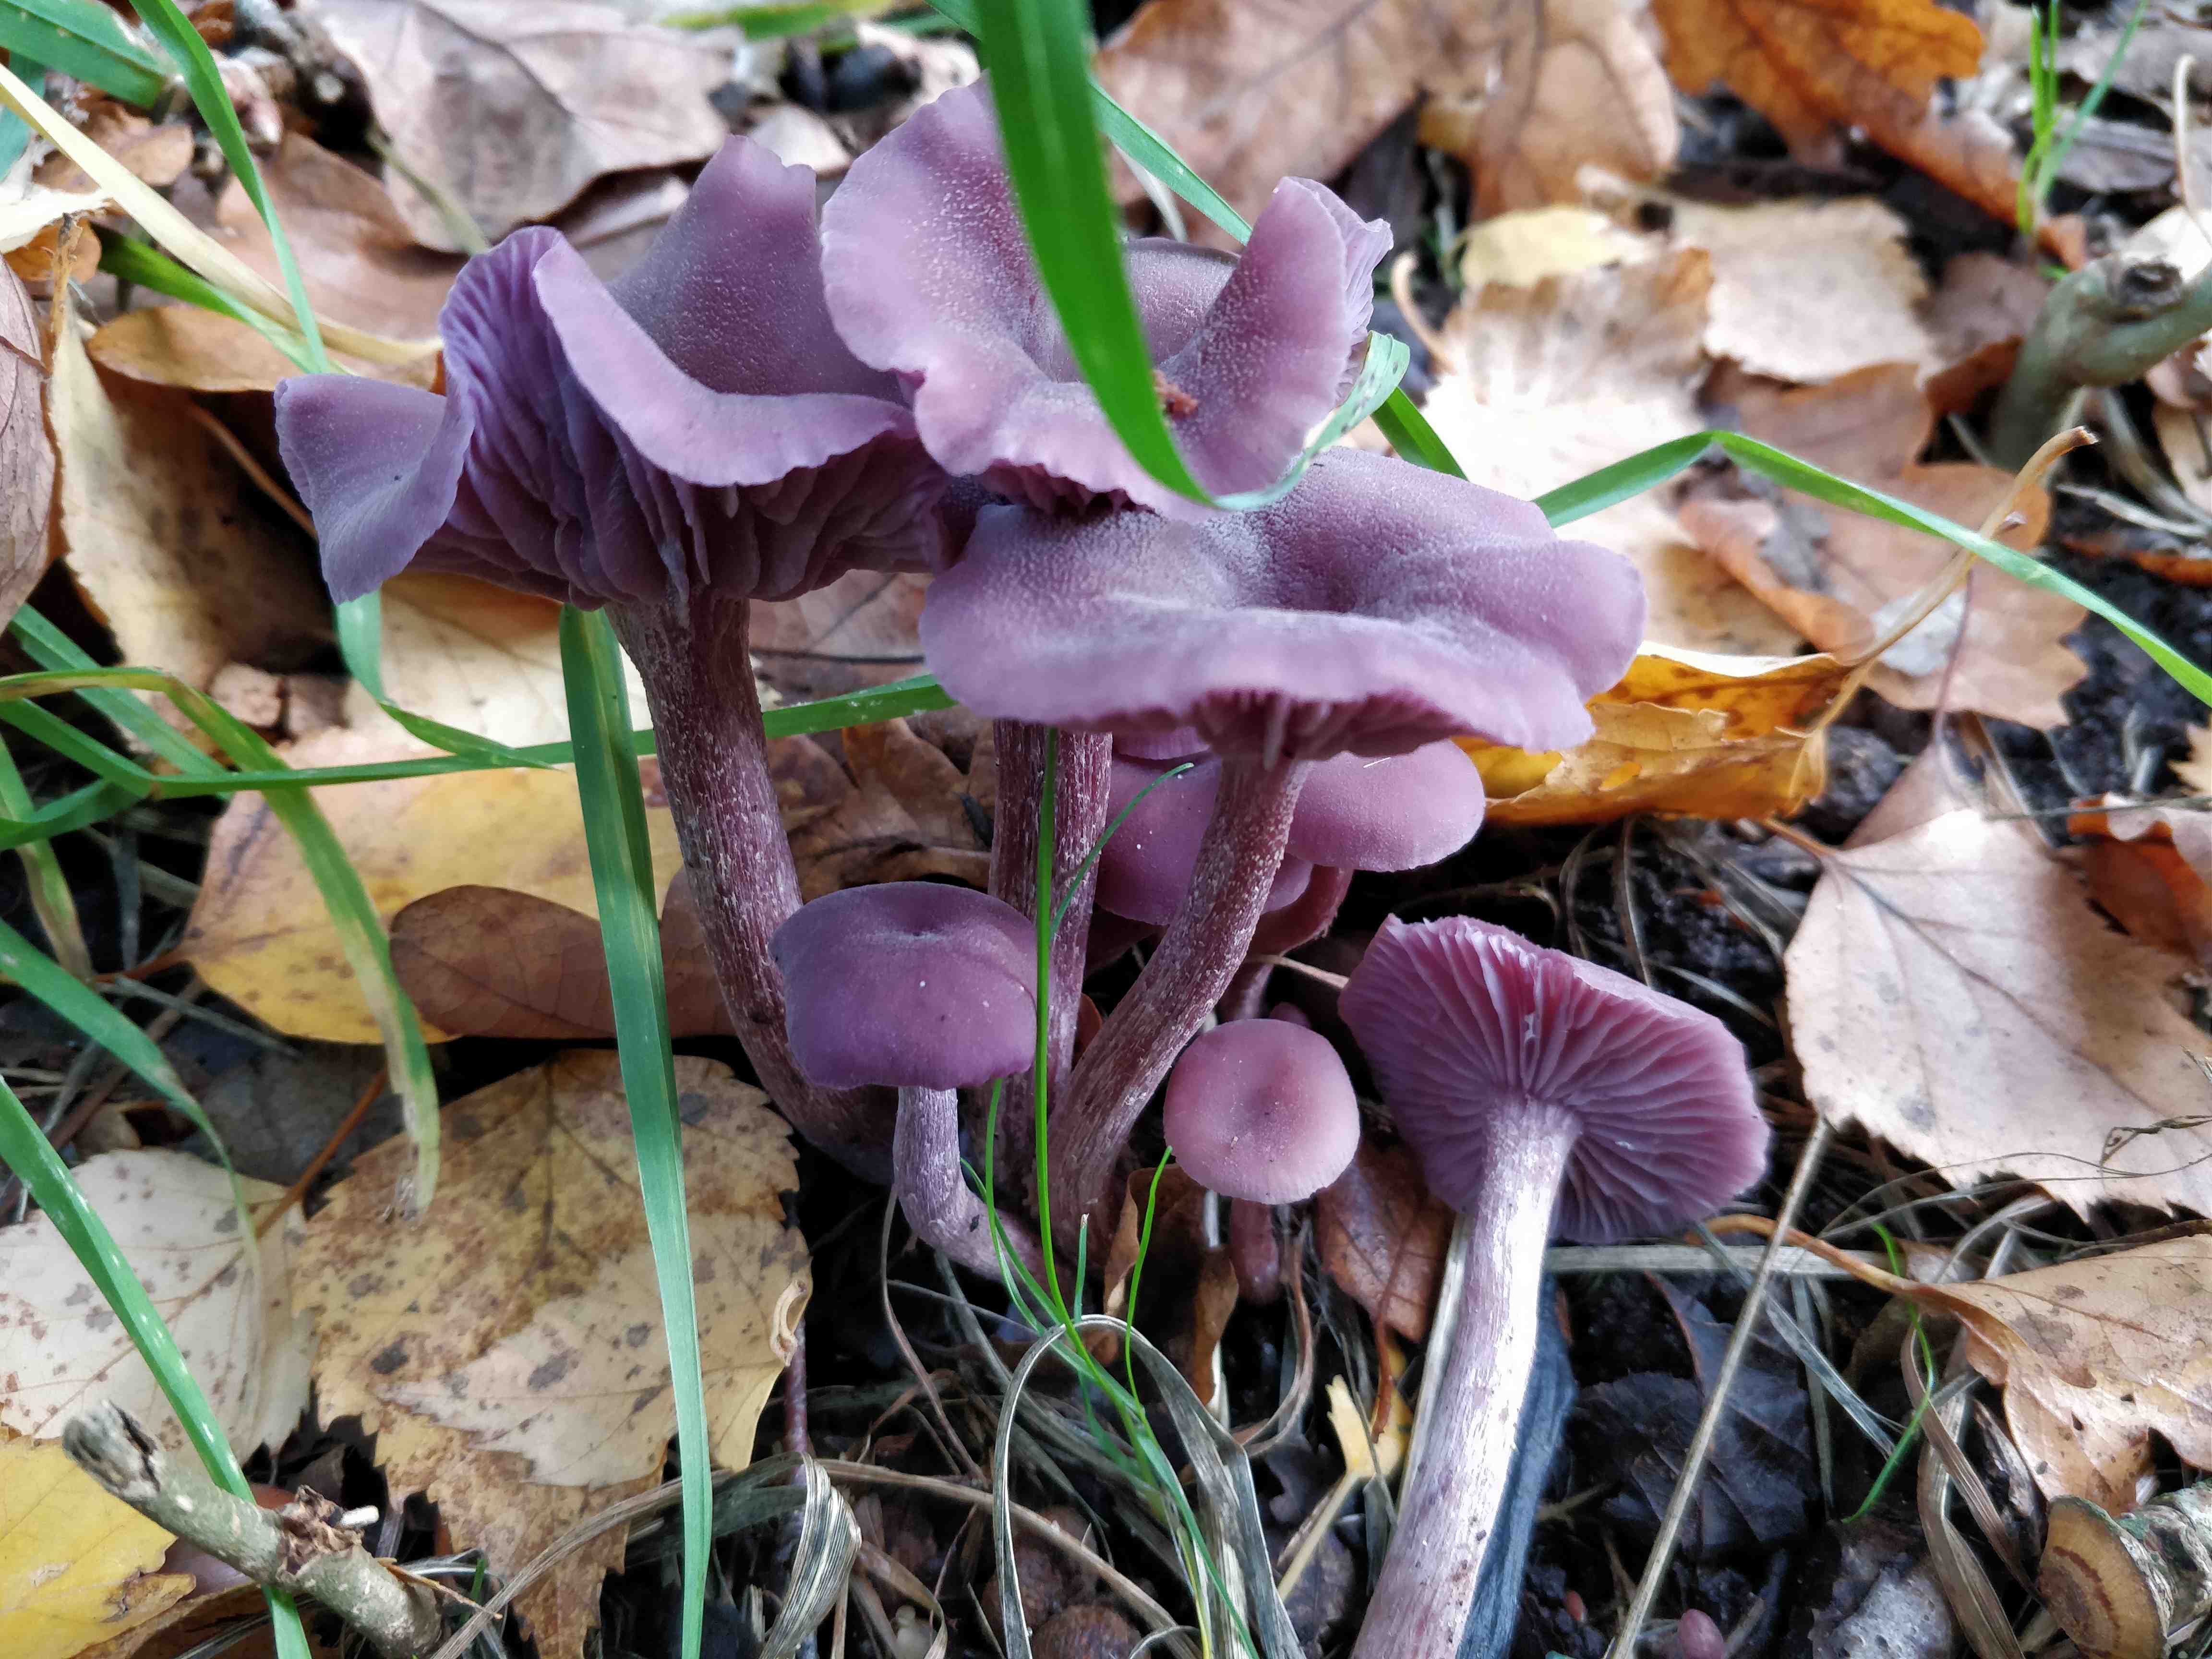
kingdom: Fungi
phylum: Basidiomycota
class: Agaricomycetes
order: Agaricales
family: Hydnangiaceae
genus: Laccaria
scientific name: Laccaria amethystina
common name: violet ametysthat
